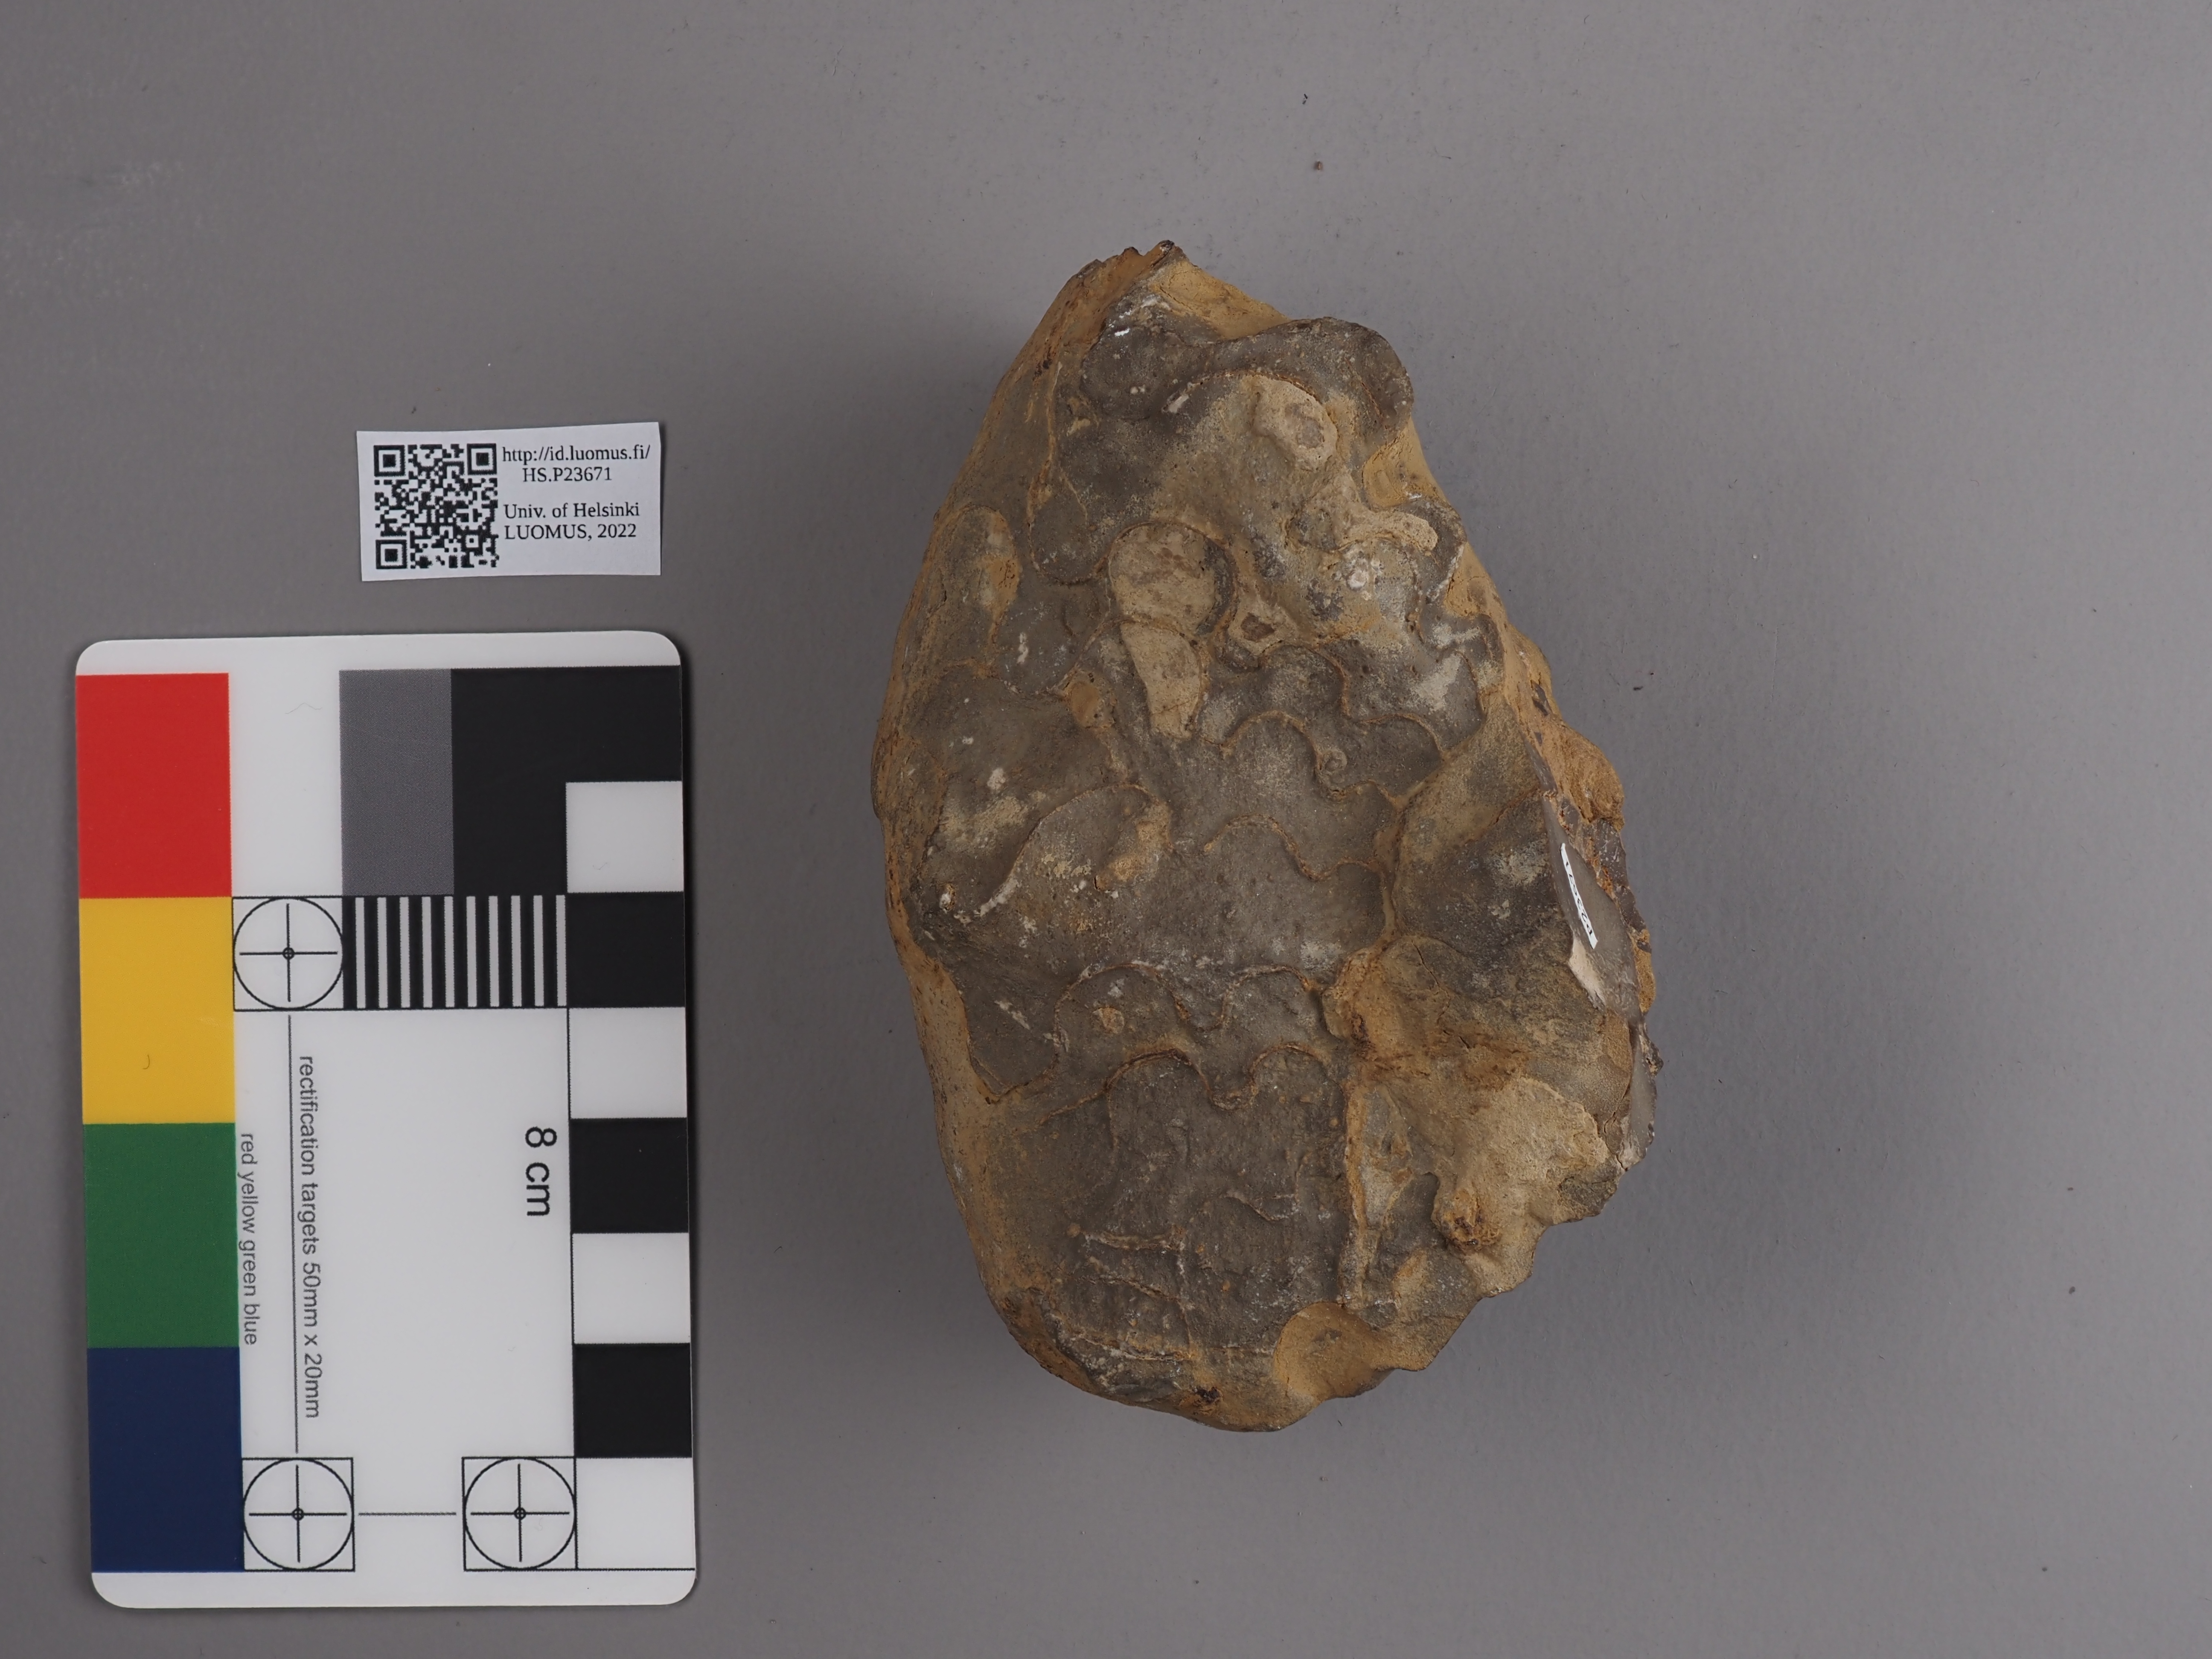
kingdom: Animalia
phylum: Mollusca
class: Cephalopoda
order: Ceratitida
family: Ceratitidae
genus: Ceratites
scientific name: Ceratites nodosus
